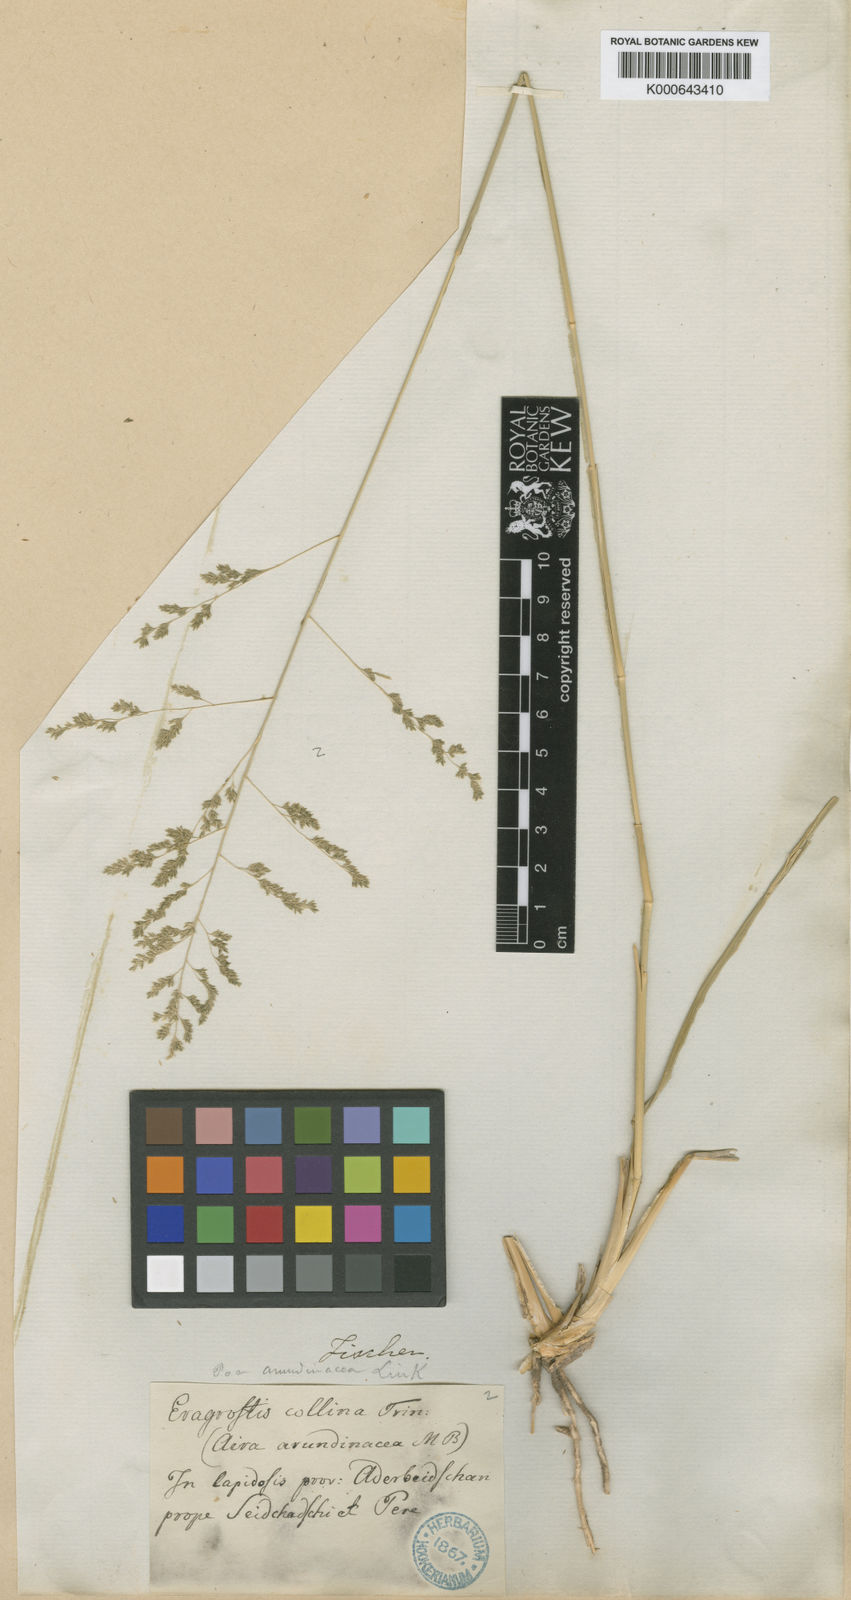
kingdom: Plantae
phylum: Tracheophyta
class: Liliopsida
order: Poales
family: Poaceae
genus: Eragrostis
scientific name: Eragrostis collina
